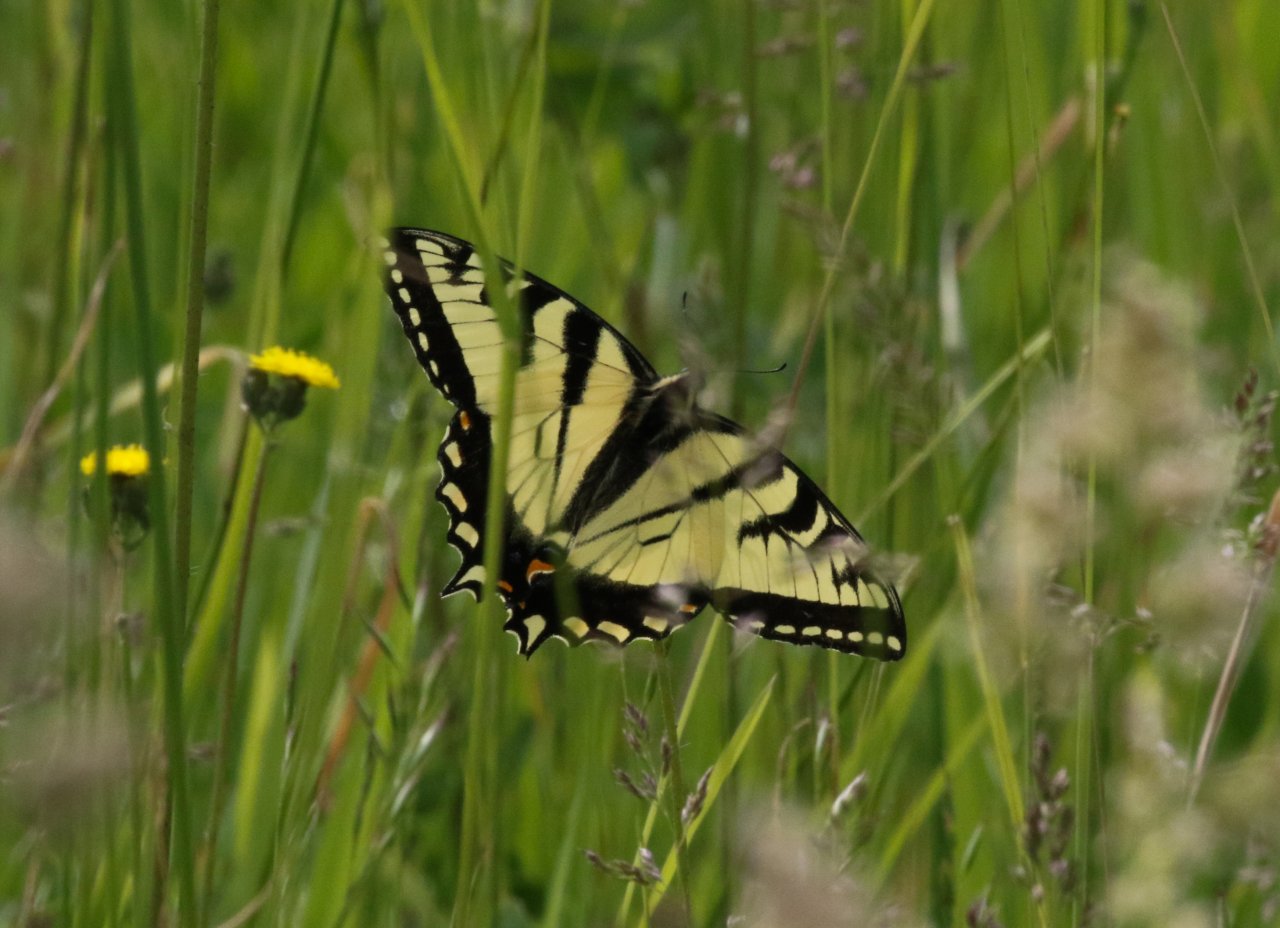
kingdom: Animalia
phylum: Arthropoda
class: Insecta
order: Lepidoptera
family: Papilionidae
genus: Pterourus
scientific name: Pterourus glaucus
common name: Eastern Tiger Swallowtail
